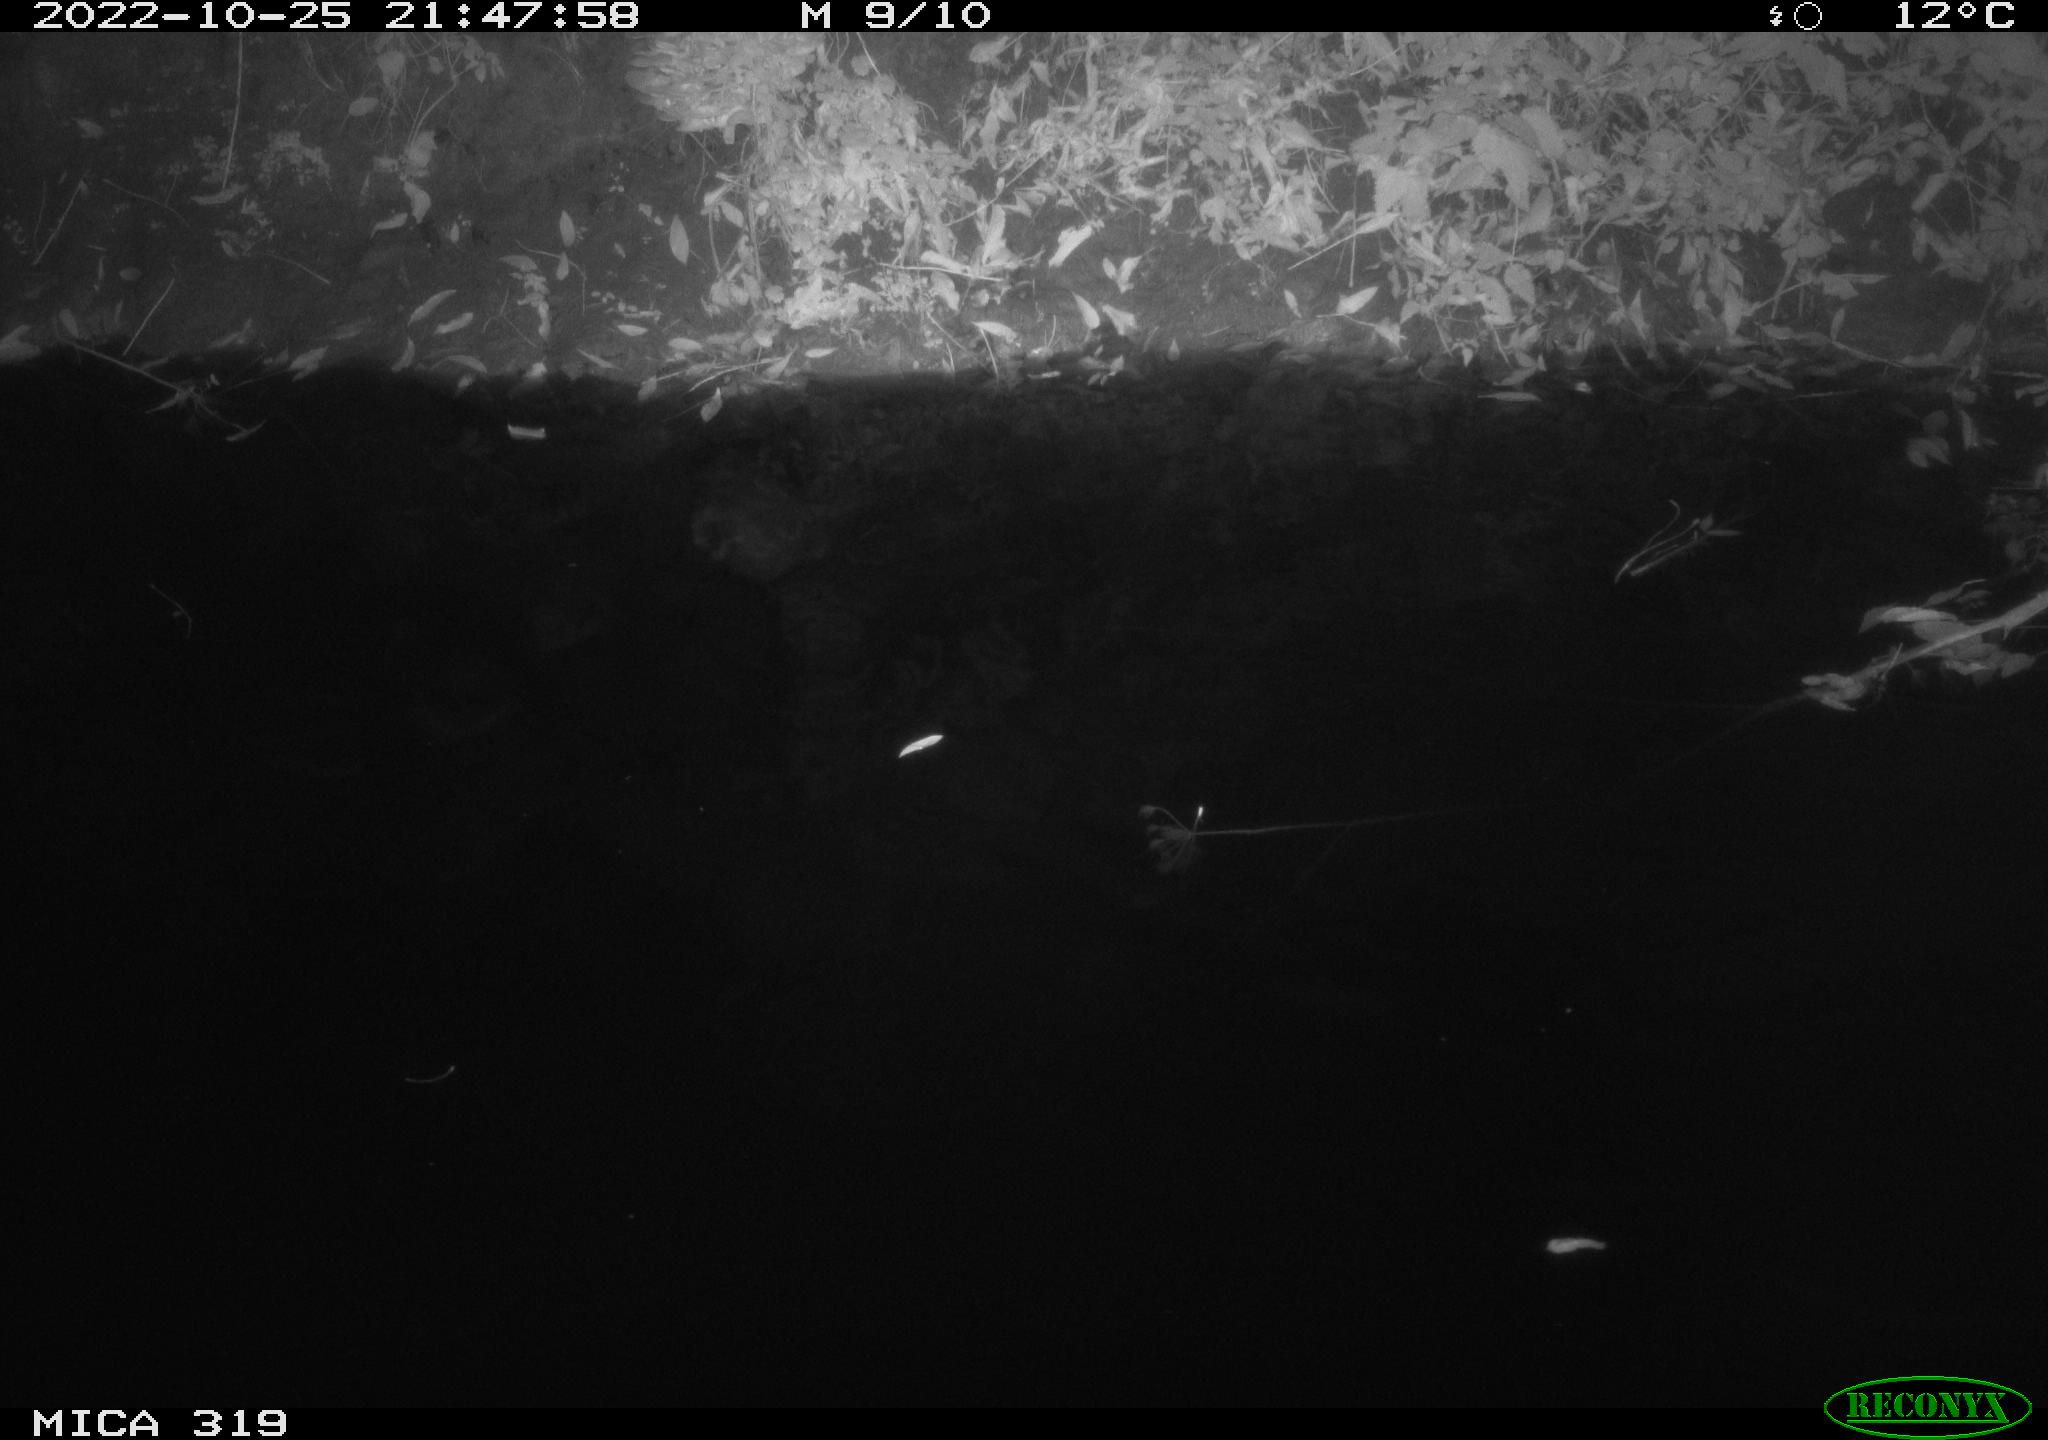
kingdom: Animalia
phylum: Chordata
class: Aves
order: Anseriformes
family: Anatidae
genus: Anas
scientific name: Anas
